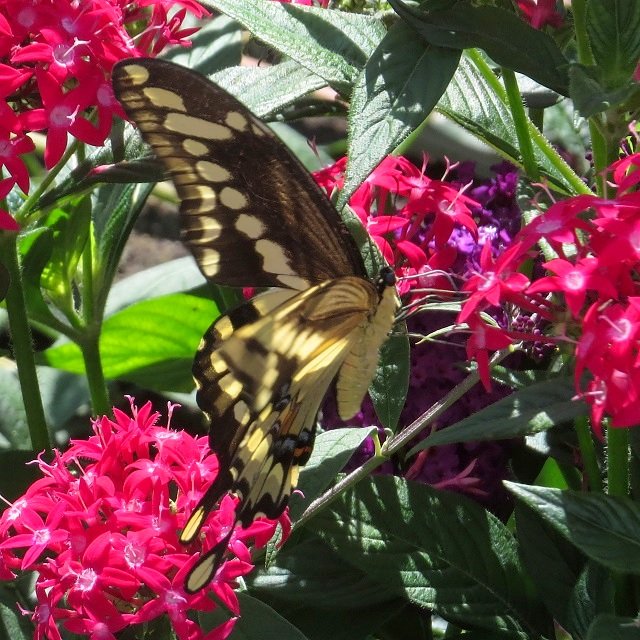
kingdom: Animalia
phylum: Arthropoda
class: Insecta
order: Lepidoptera
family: Papilionidae
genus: Papilio
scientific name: Papilio cresphontes
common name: Eastern Giant Swallowtail
